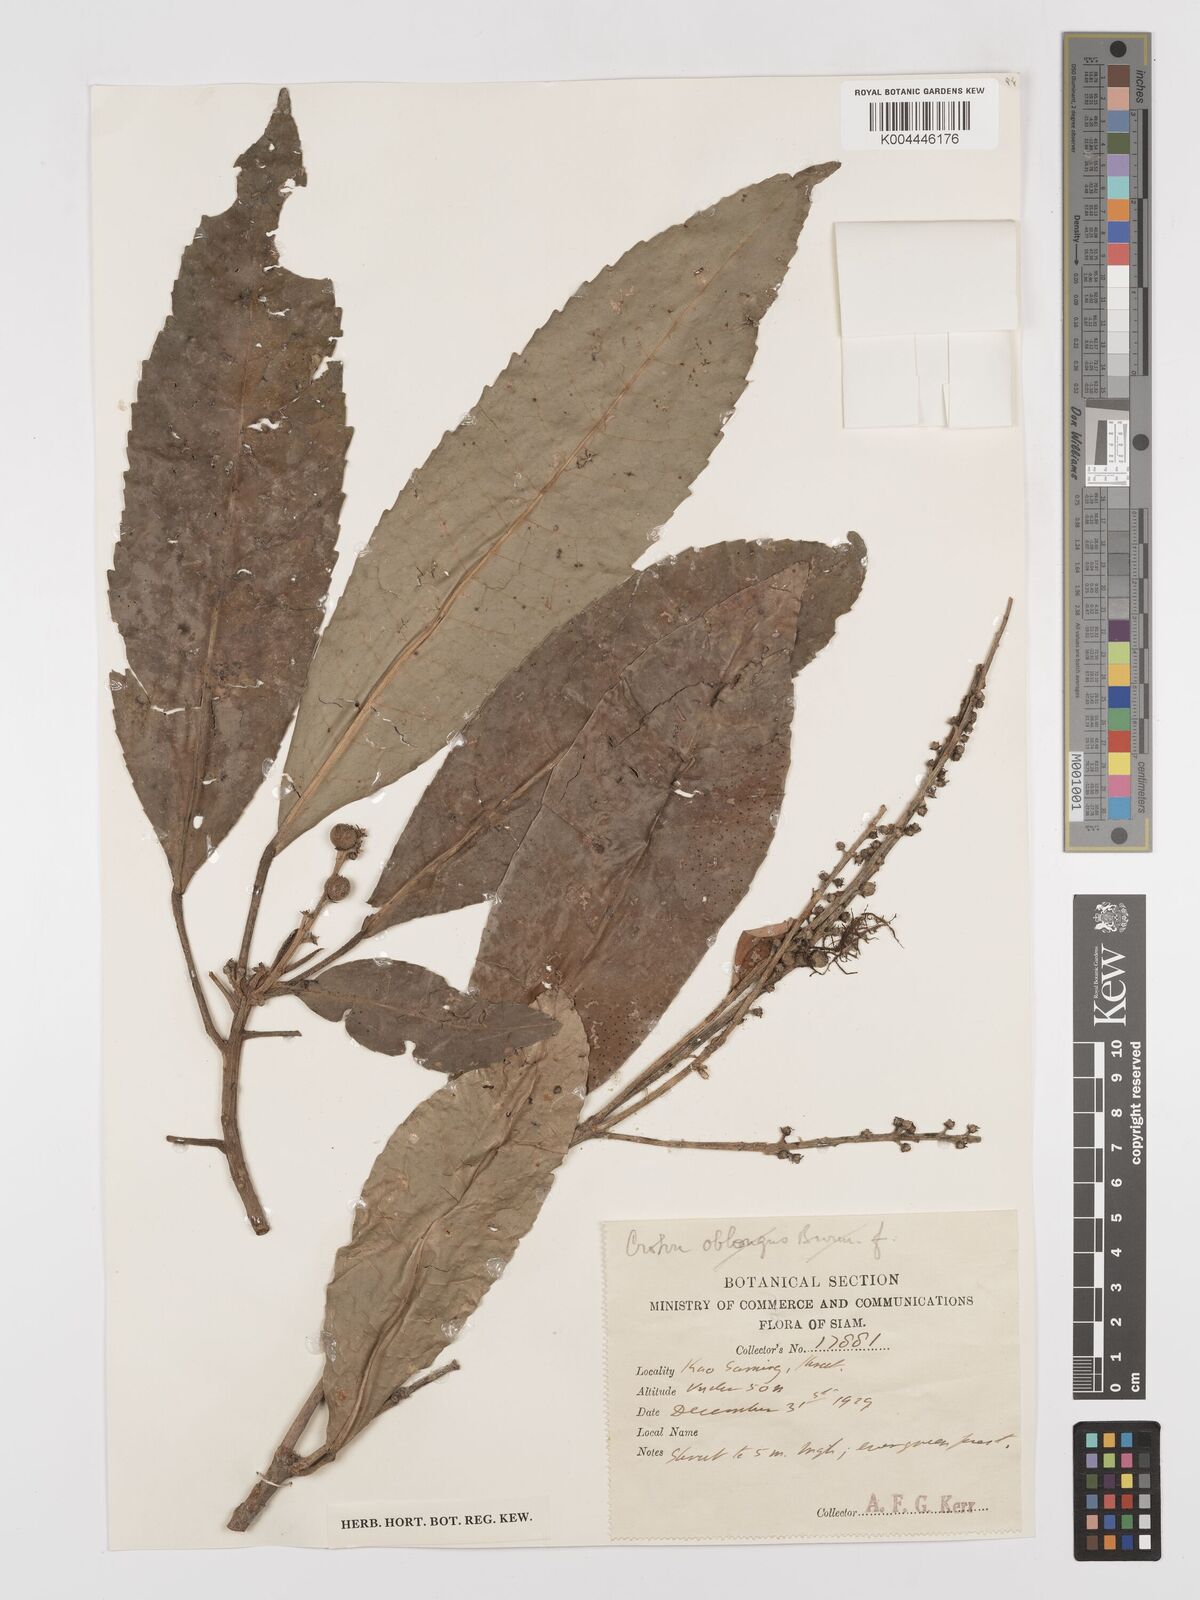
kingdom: Plantae
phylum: Tracheophyta
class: Magnoliopsida
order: Malpighiales
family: Euphorbiaceae
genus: Croton
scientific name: Croton delpyi
